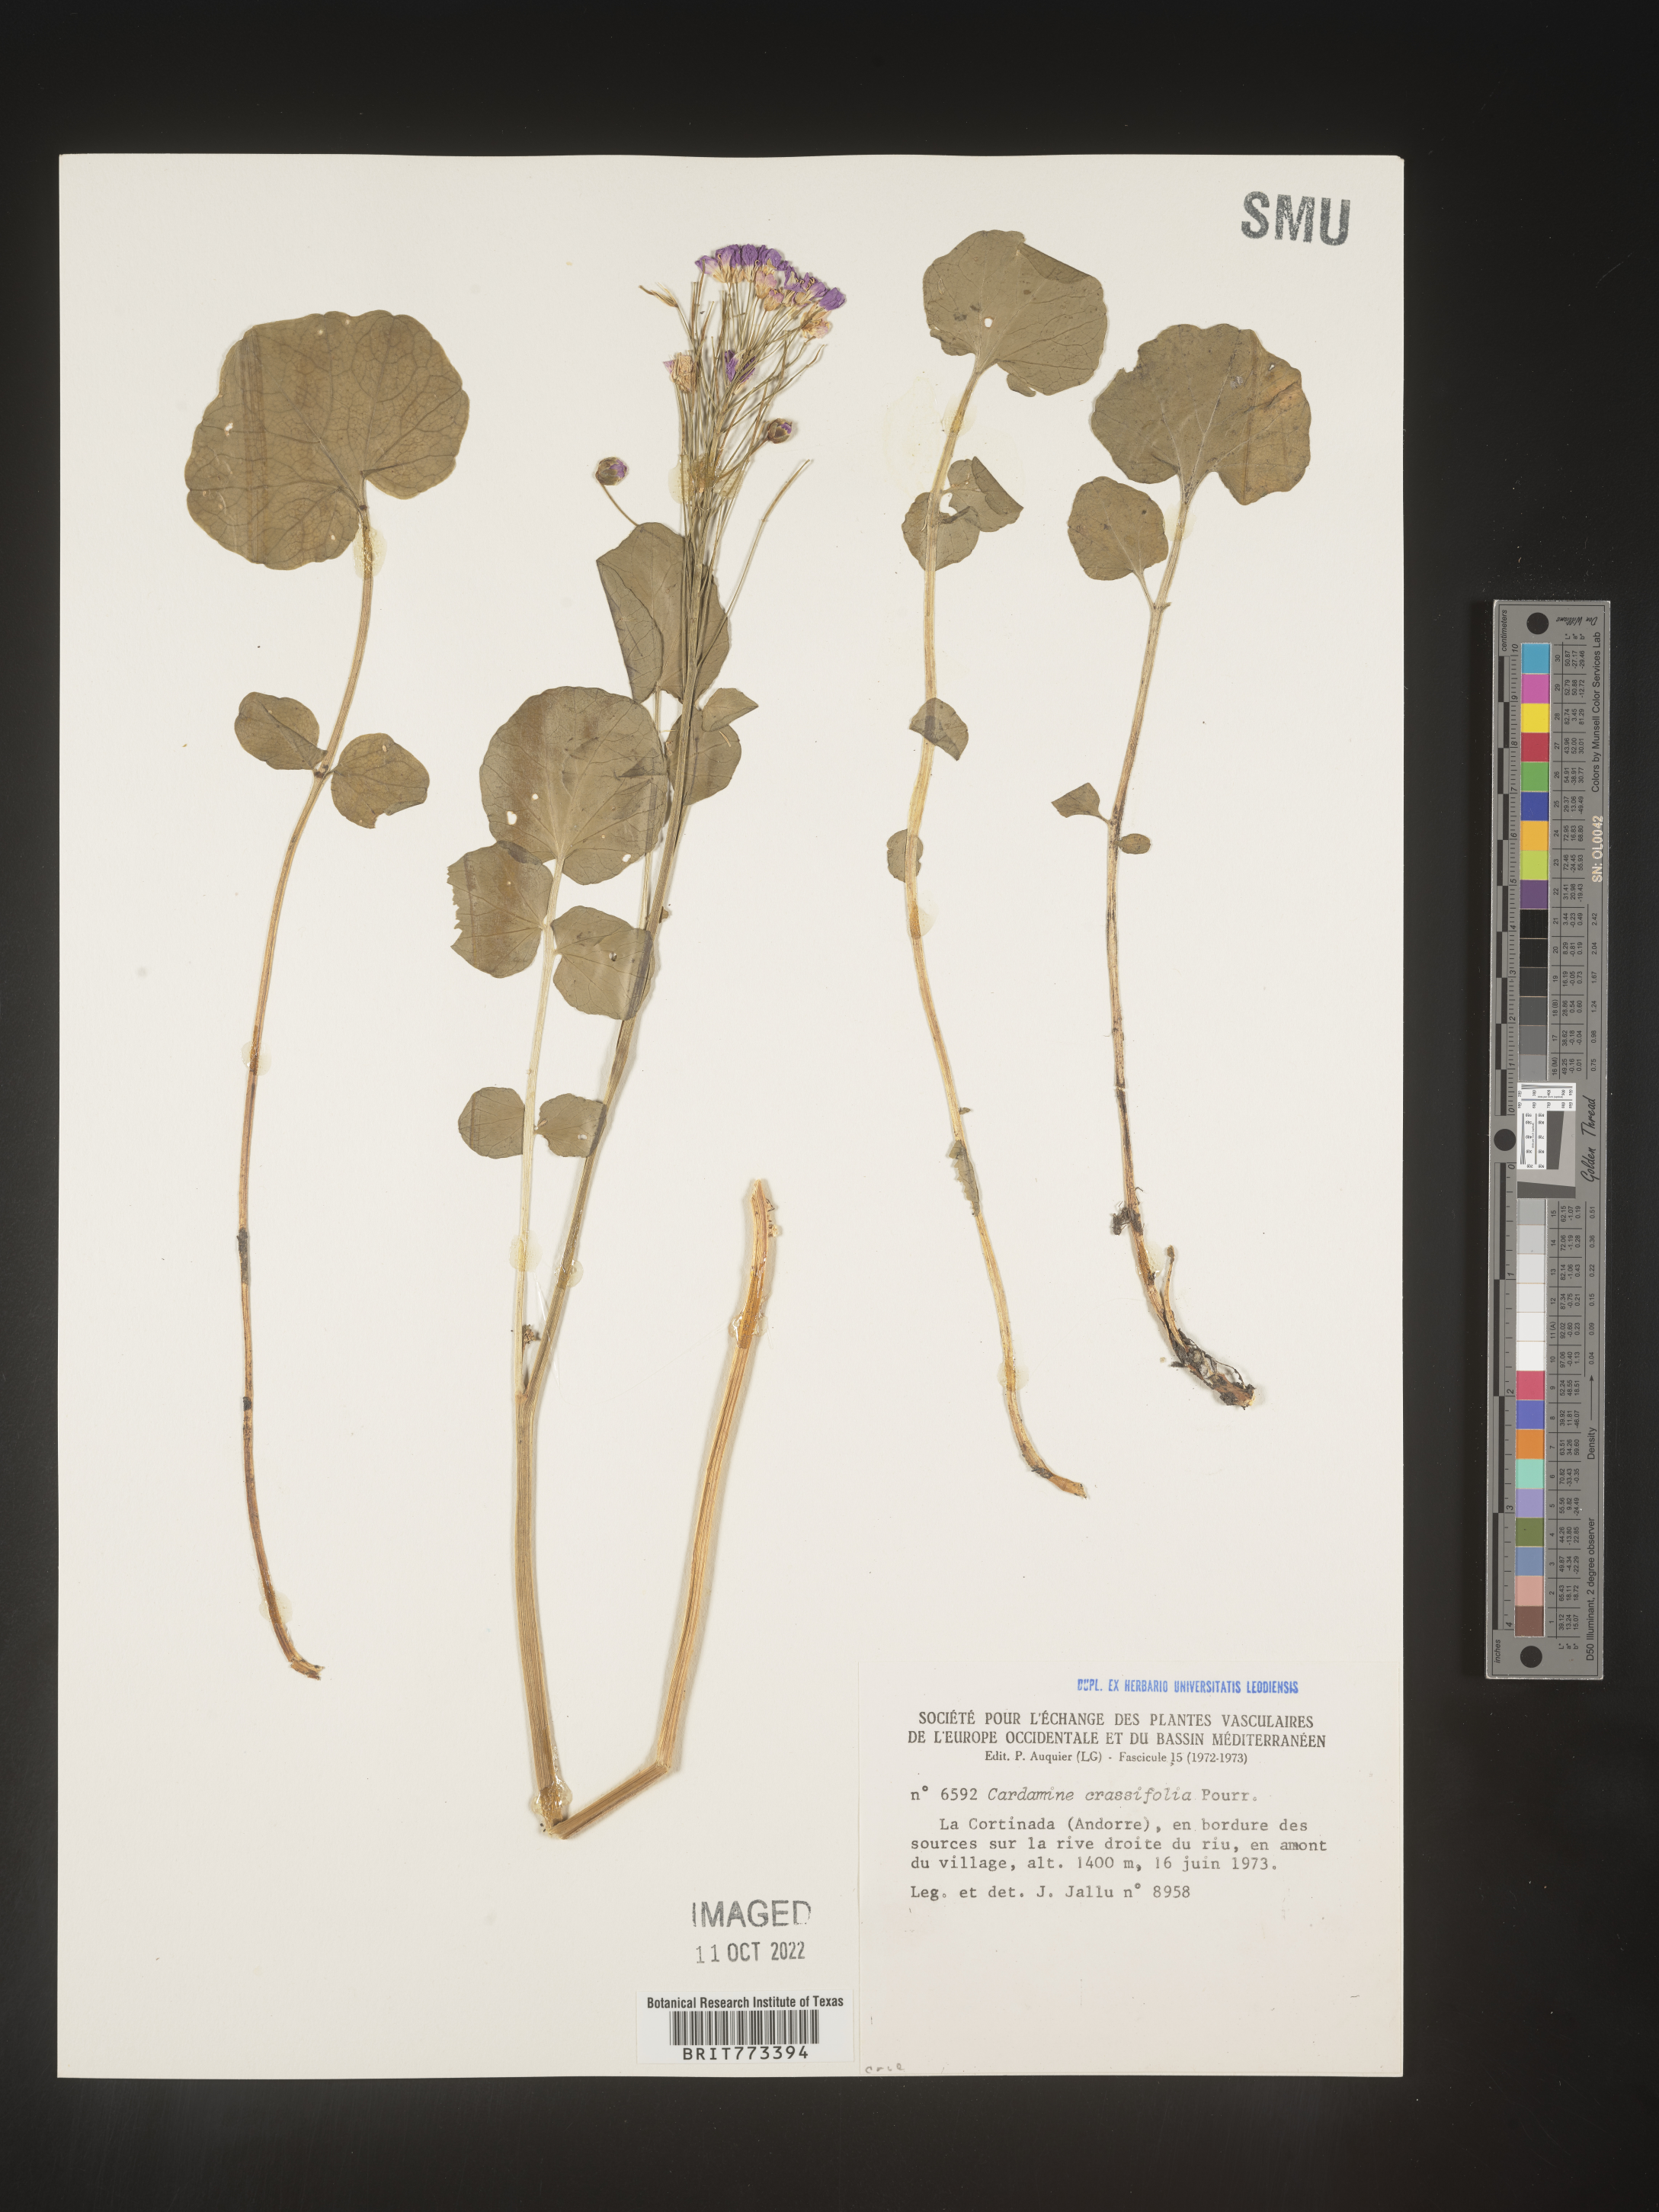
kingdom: Plantae
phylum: Tracheophyta
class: Magnoliopsida
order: Brassicales
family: Brassicaceae
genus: Cardamine
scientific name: Cardamine
